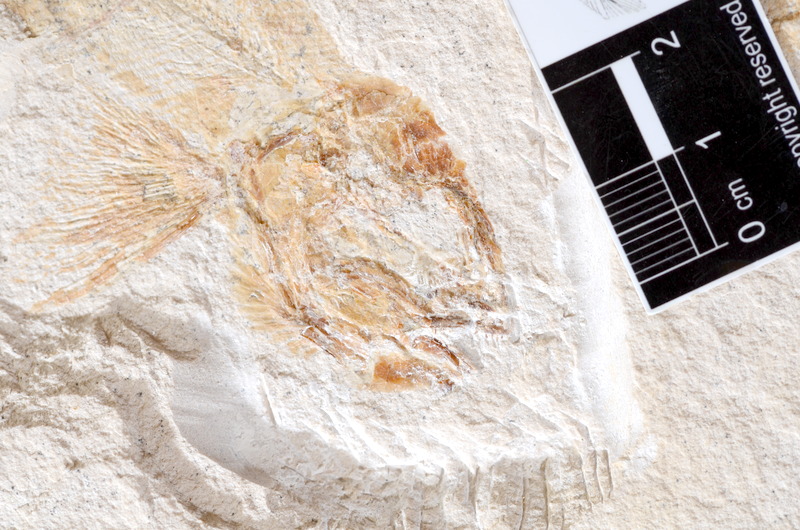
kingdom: Animalia
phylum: Chordata
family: Ascalaboidae
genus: Tharsis
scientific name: Tharsis
